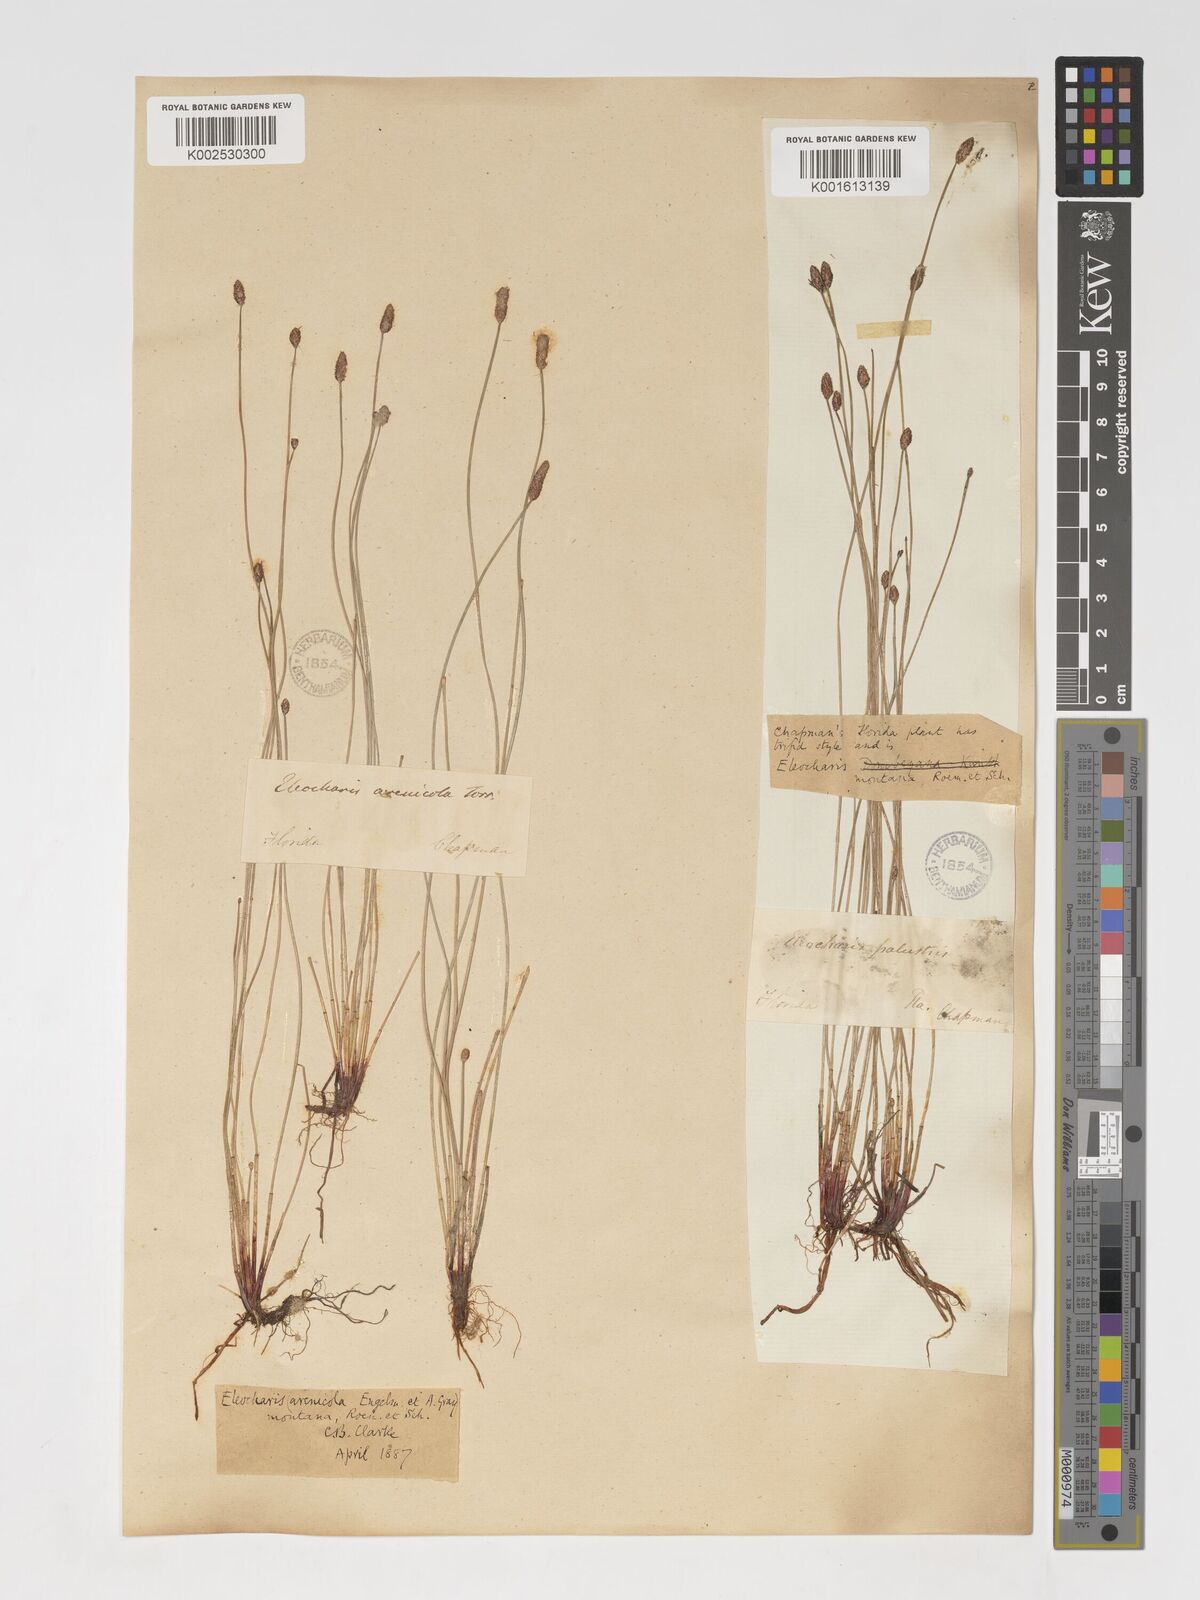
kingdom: Plantae
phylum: Tracheophyta
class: Liliopsida
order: Poales
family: Cyperaceae
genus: Eleocharis
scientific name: Eleocharis palustris
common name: Common spike-rush
